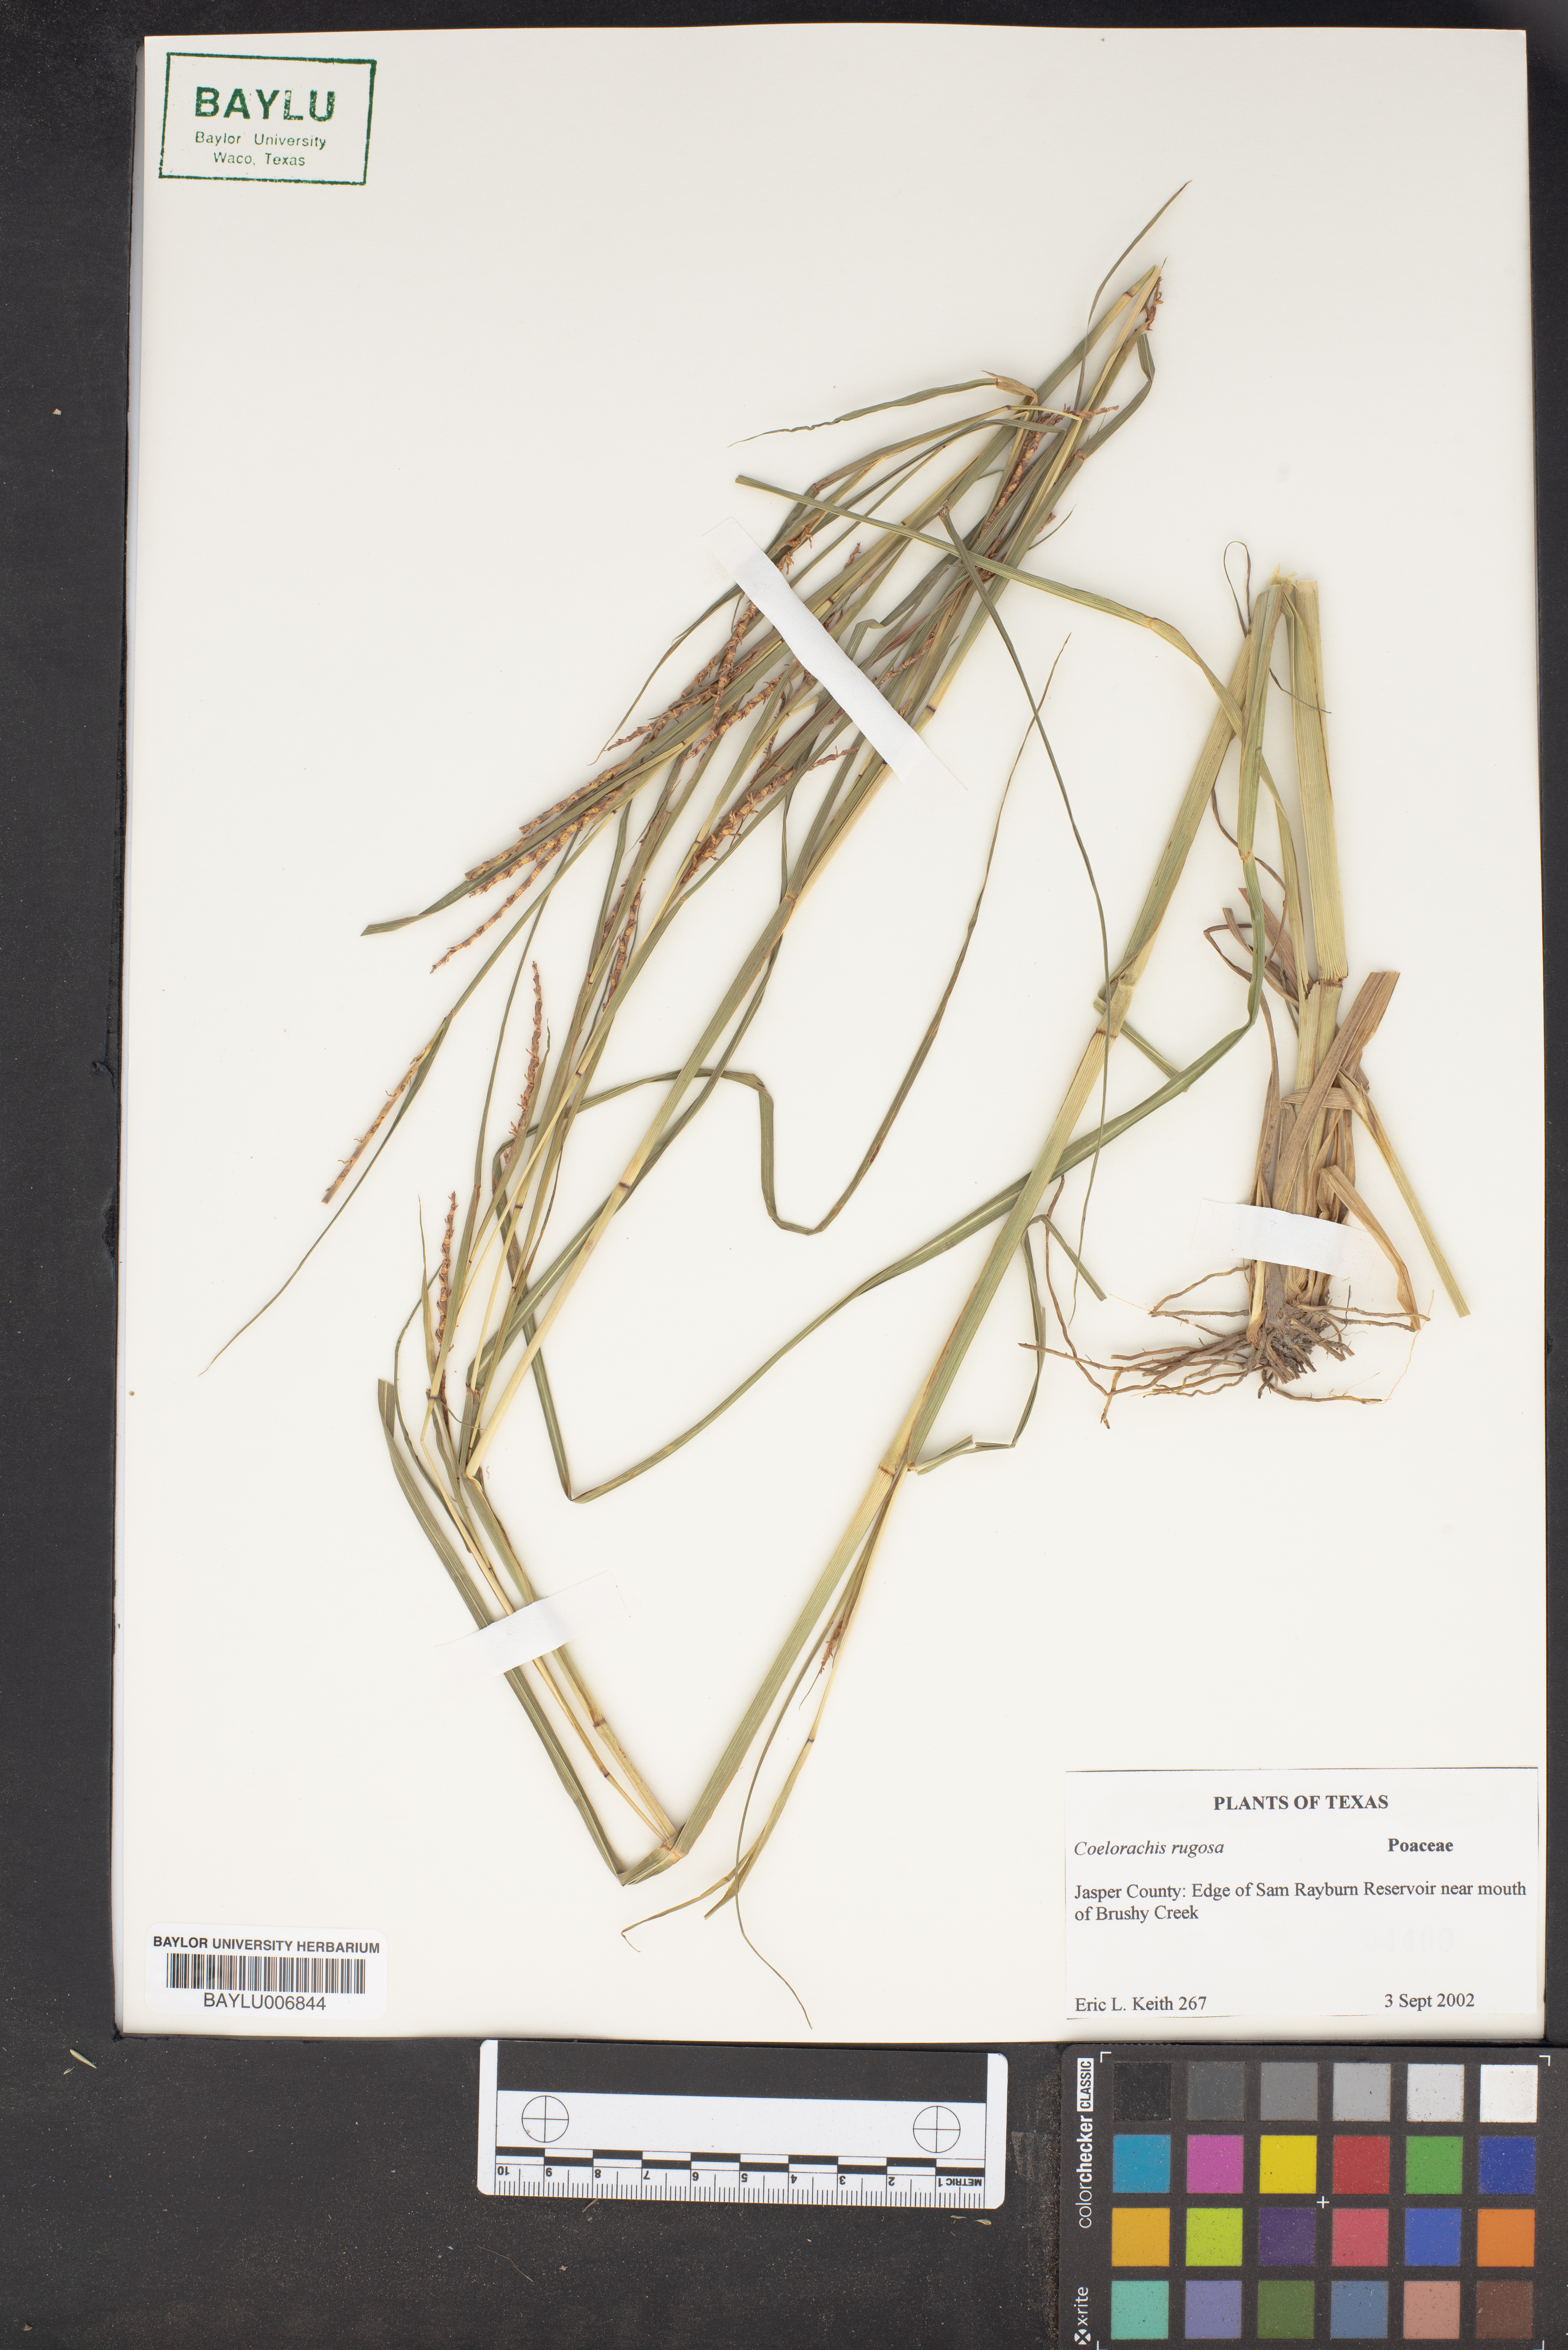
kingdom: Plantae
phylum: Tracheophyta
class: Liliopsida
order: Poales
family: Poaceae
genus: Rottboellia
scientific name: Rottboellia rugosa
